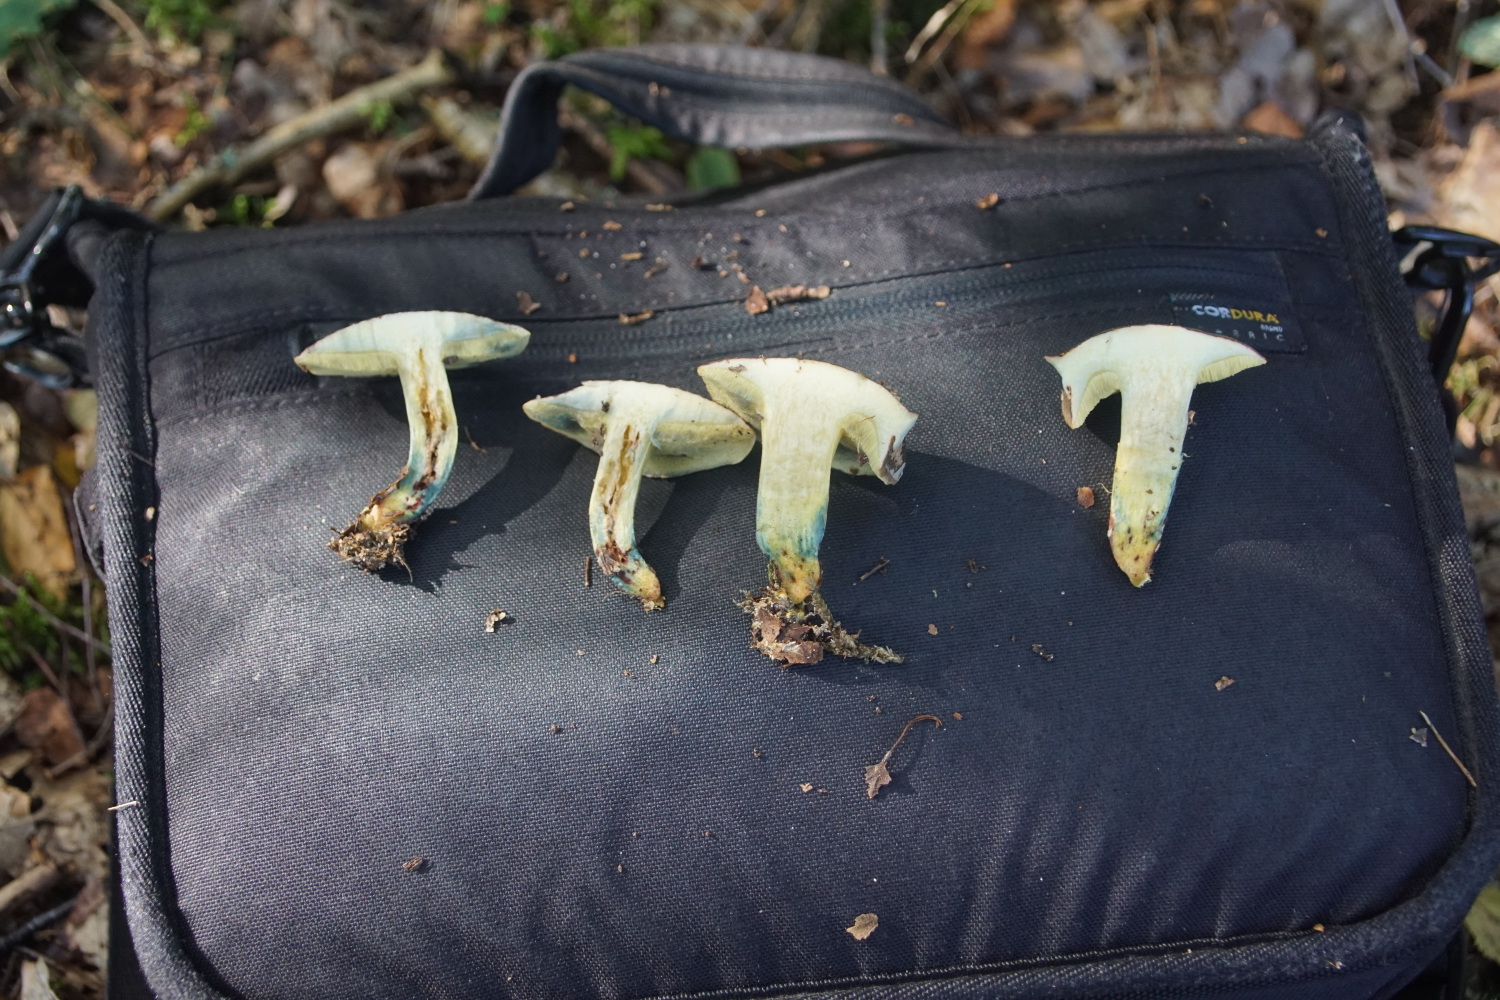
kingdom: Fungi
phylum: Basidiomycota
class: Agaricomycetes
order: Boletales
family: Boletaceae
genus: Xerocomellus
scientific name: Xerocomellus cisalpinus
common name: finsprukken rørhat
